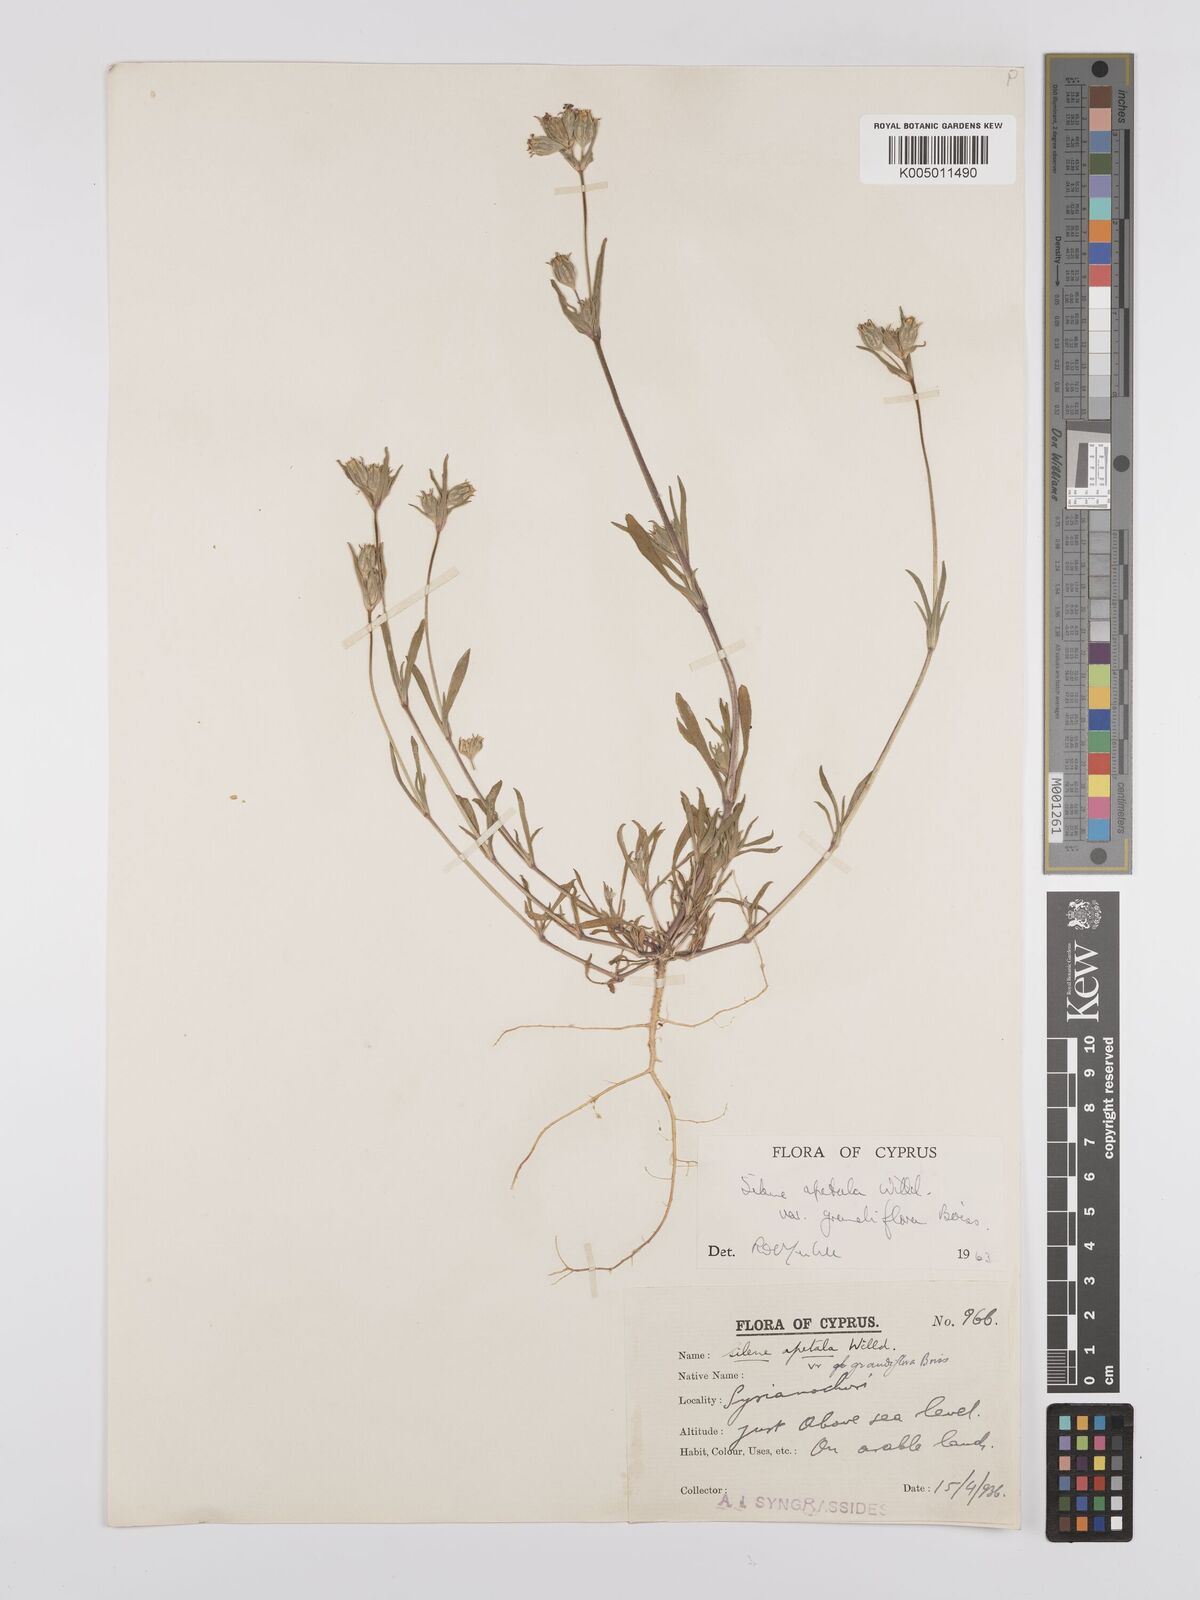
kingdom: Plantae
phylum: Tracheophyta
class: Magnoliopsida
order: Caryophyllales
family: Caryophyllaceae
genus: Silene
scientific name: Silene apetala
